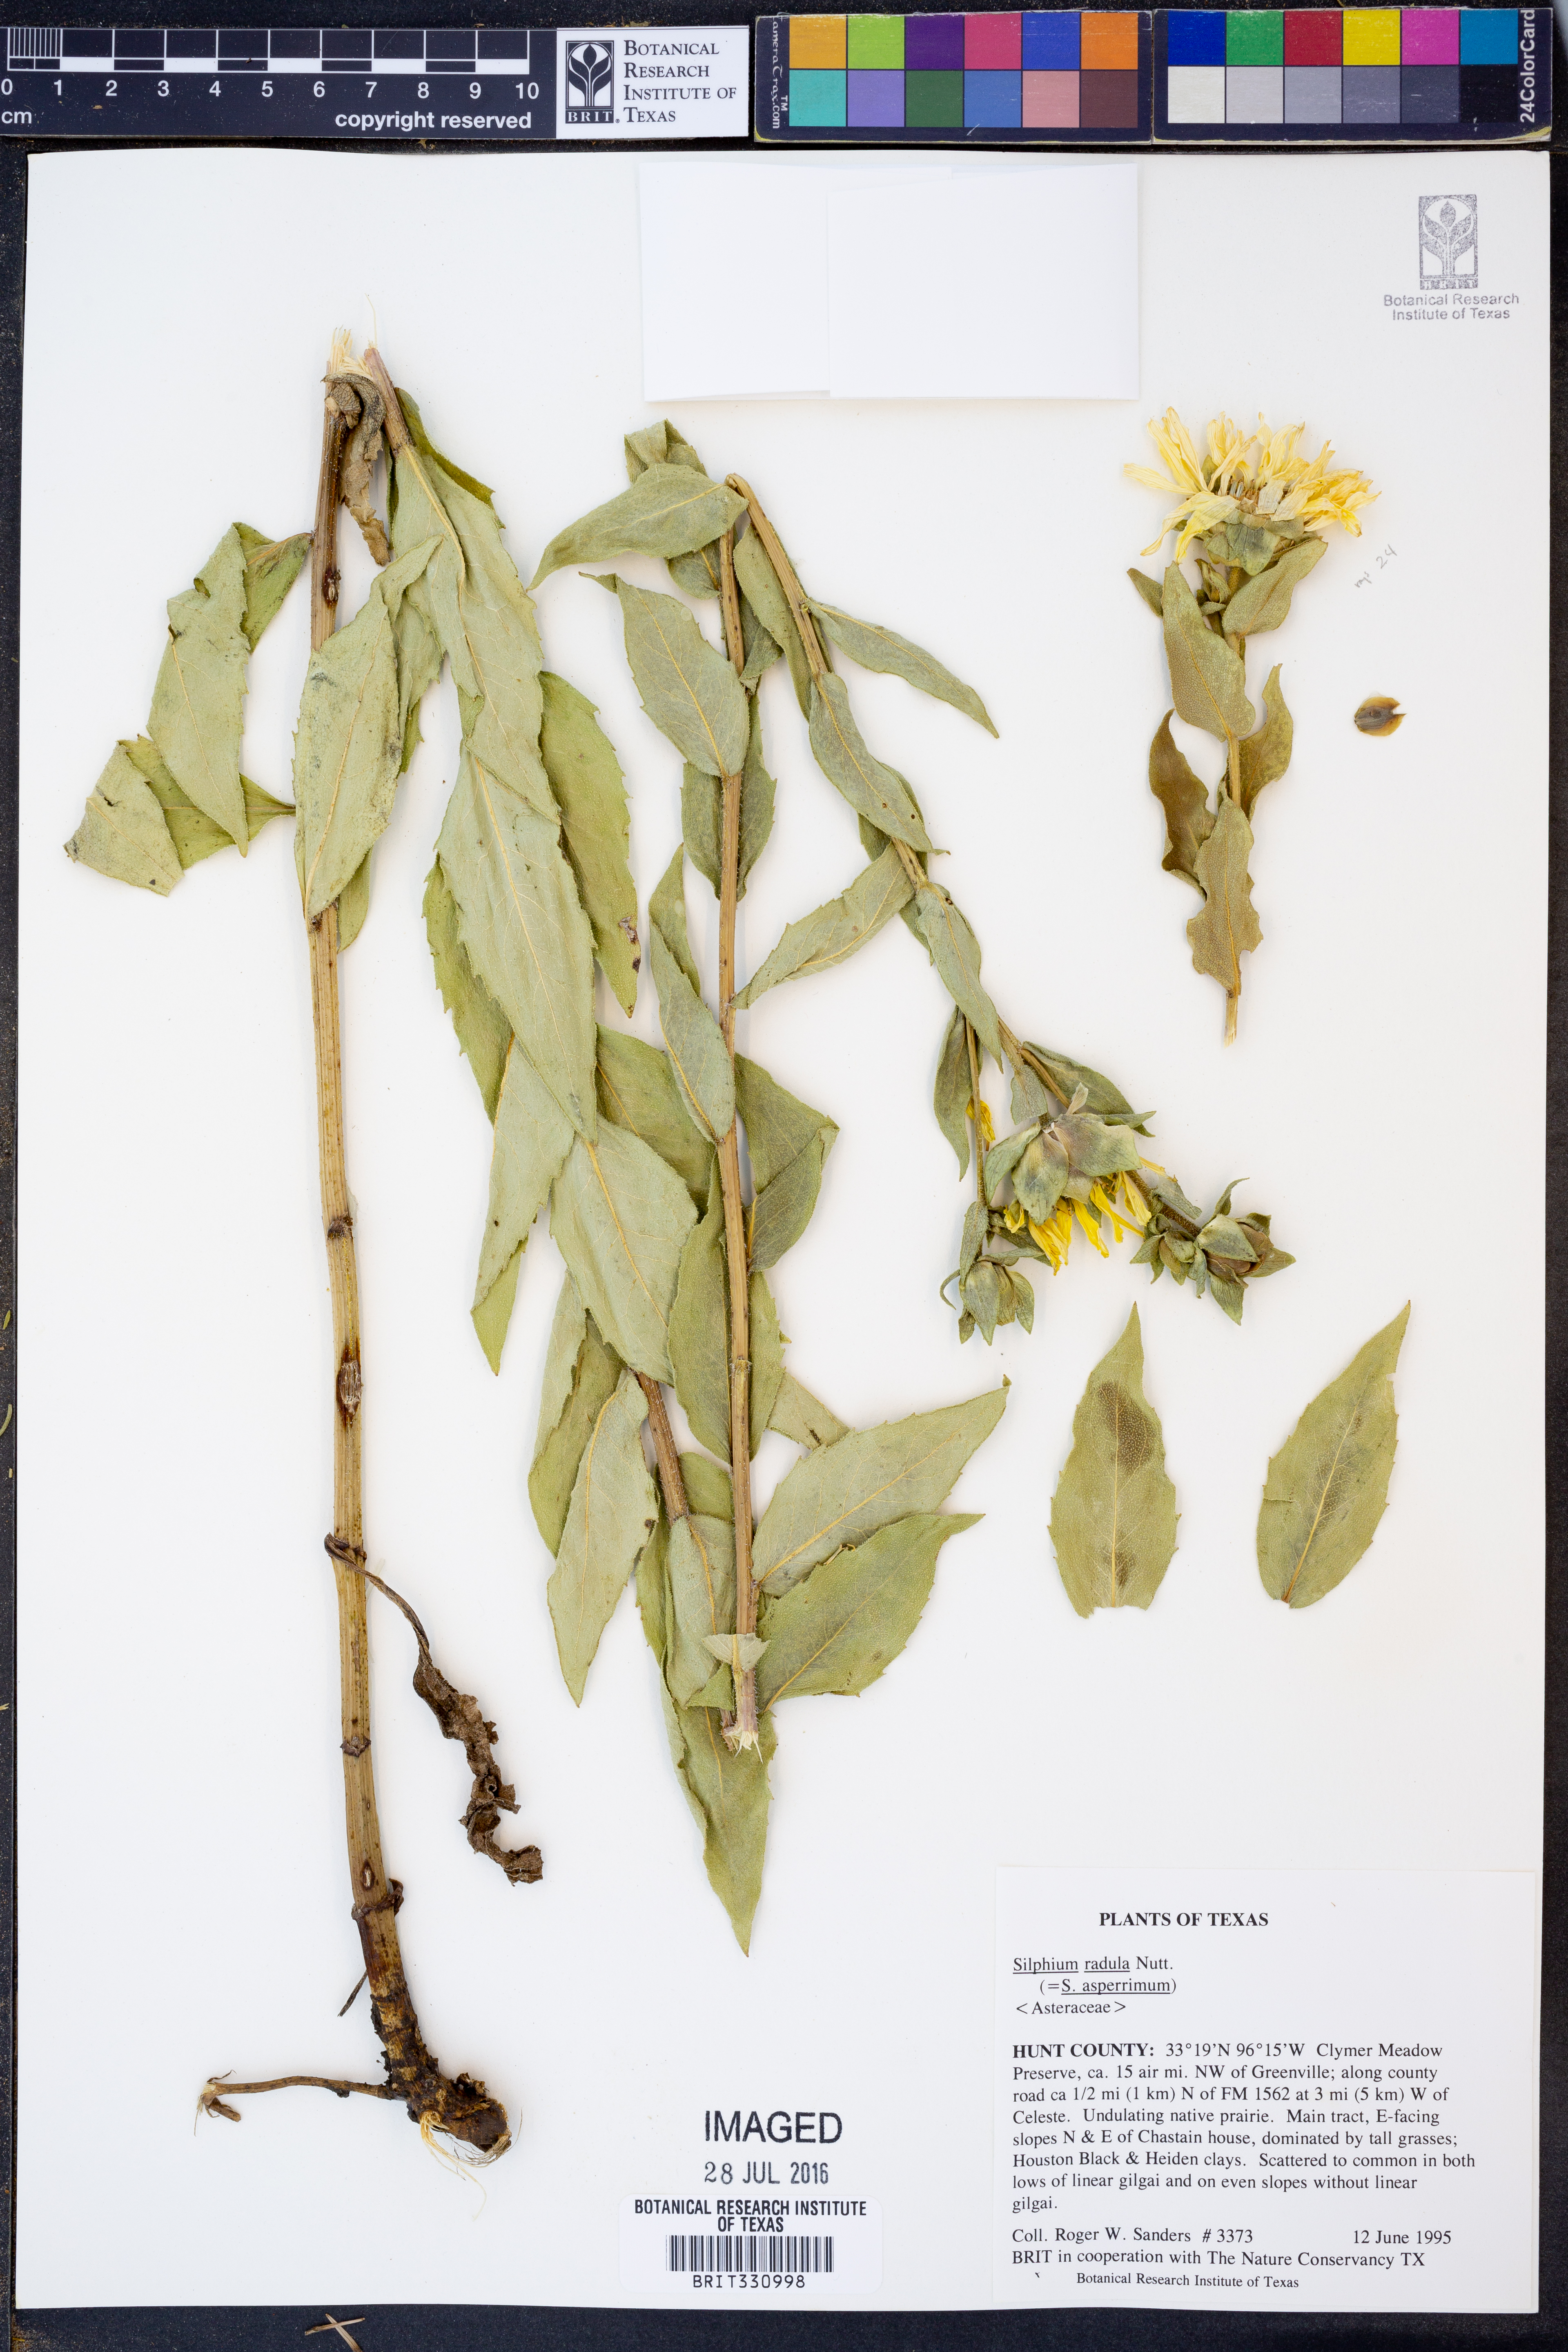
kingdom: Plantae
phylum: Tracheophyta
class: Magnoliopsida
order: Asterales
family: Asteraceae
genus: Silphium
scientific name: Silphium radula
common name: Roughleaf rosinweed
